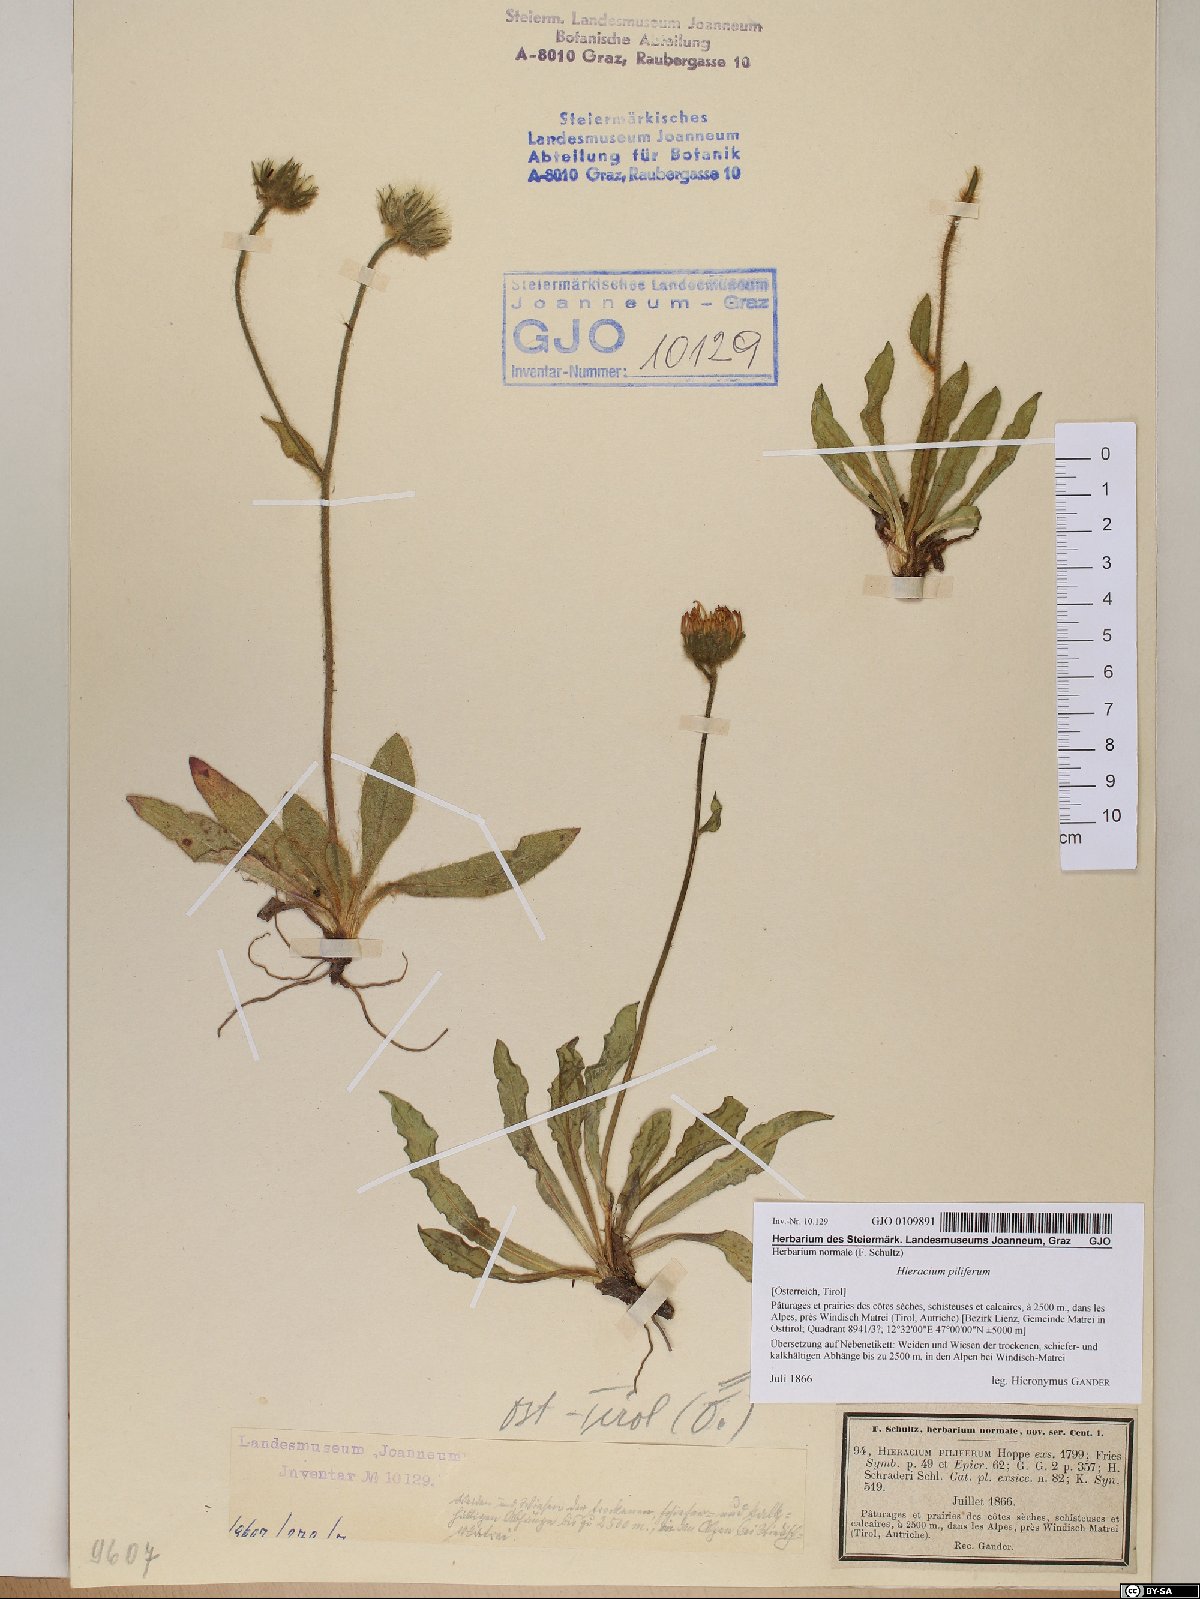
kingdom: Plantae
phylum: Tracheophyta
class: Magnoliopsida
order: Asterales
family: Asteraceae
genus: Hieracium
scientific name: Hieracium piliferum
